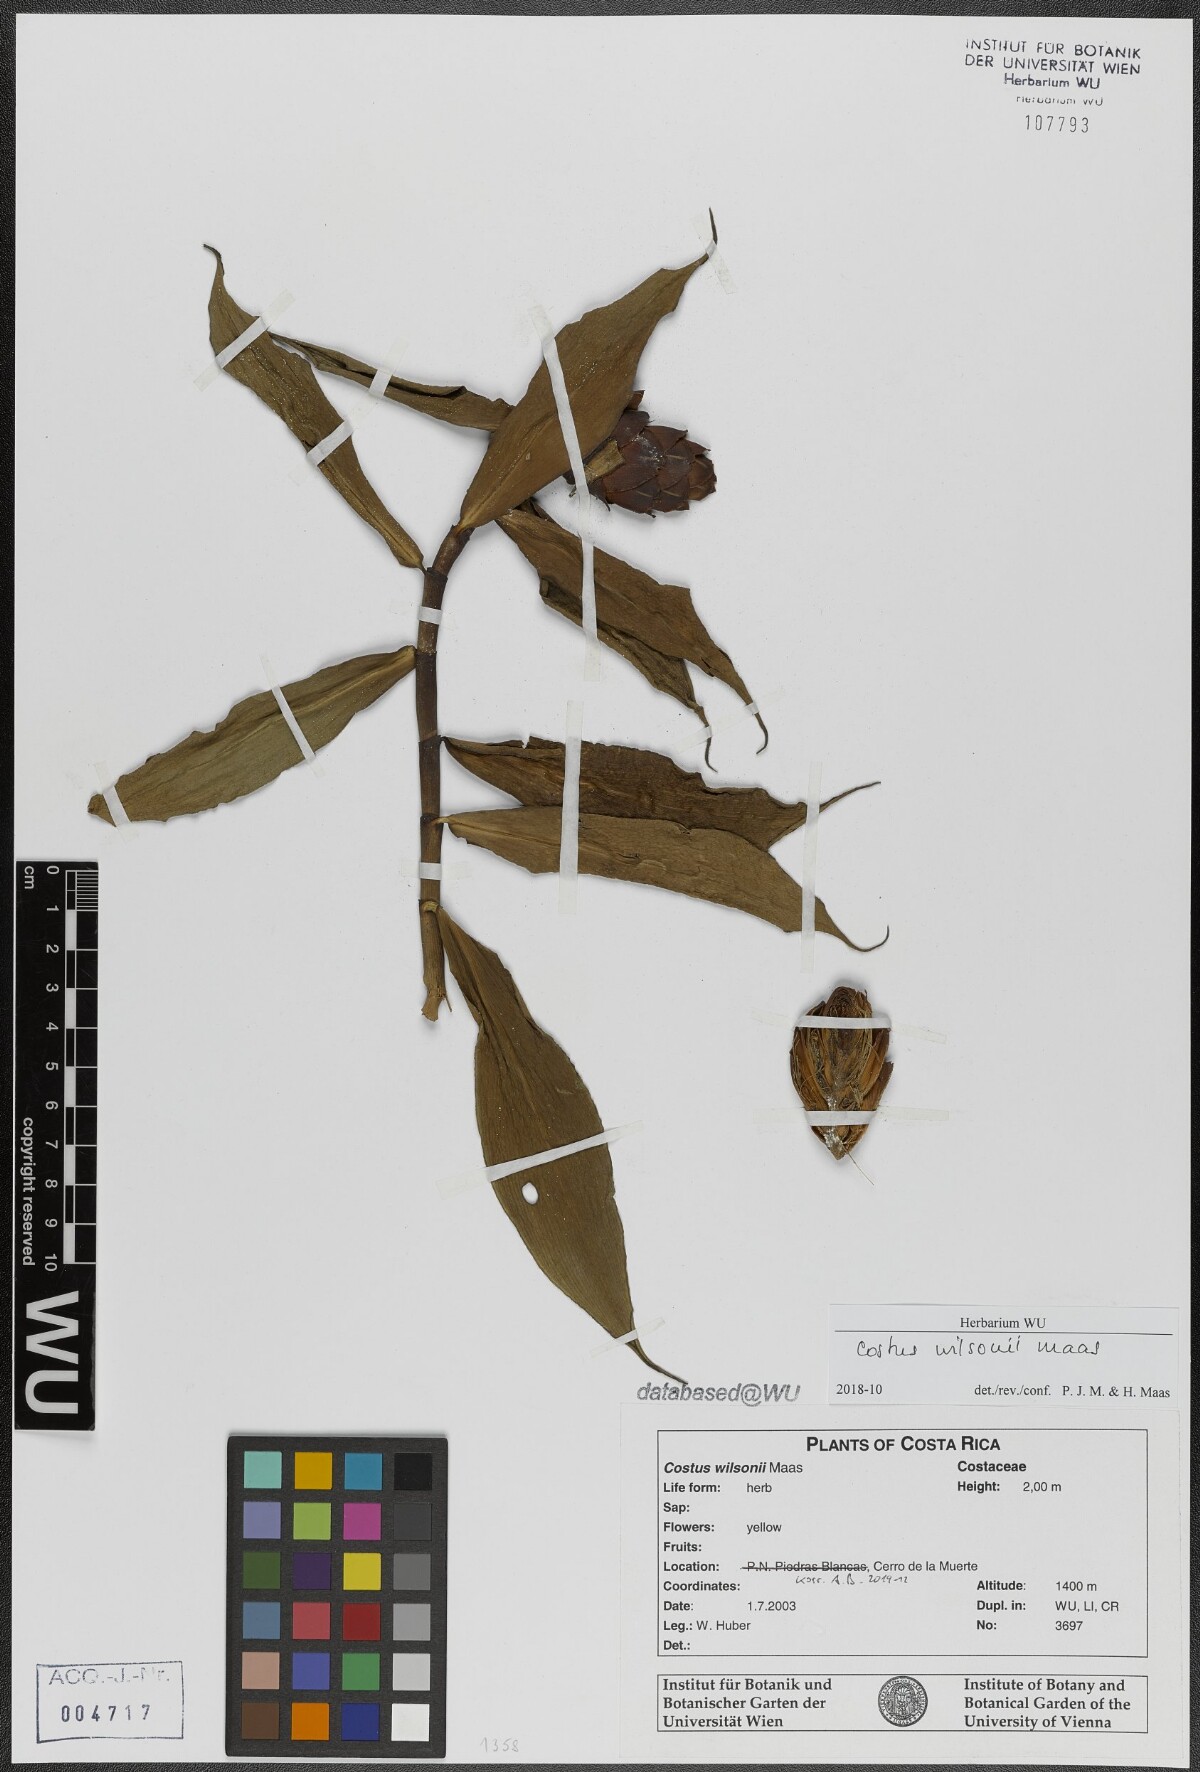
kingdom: Plantae
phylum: Tracheophyta
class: Liliopsida
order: Zingiberales
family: Costaceae
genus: Costus
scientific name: Costus wilsonii
